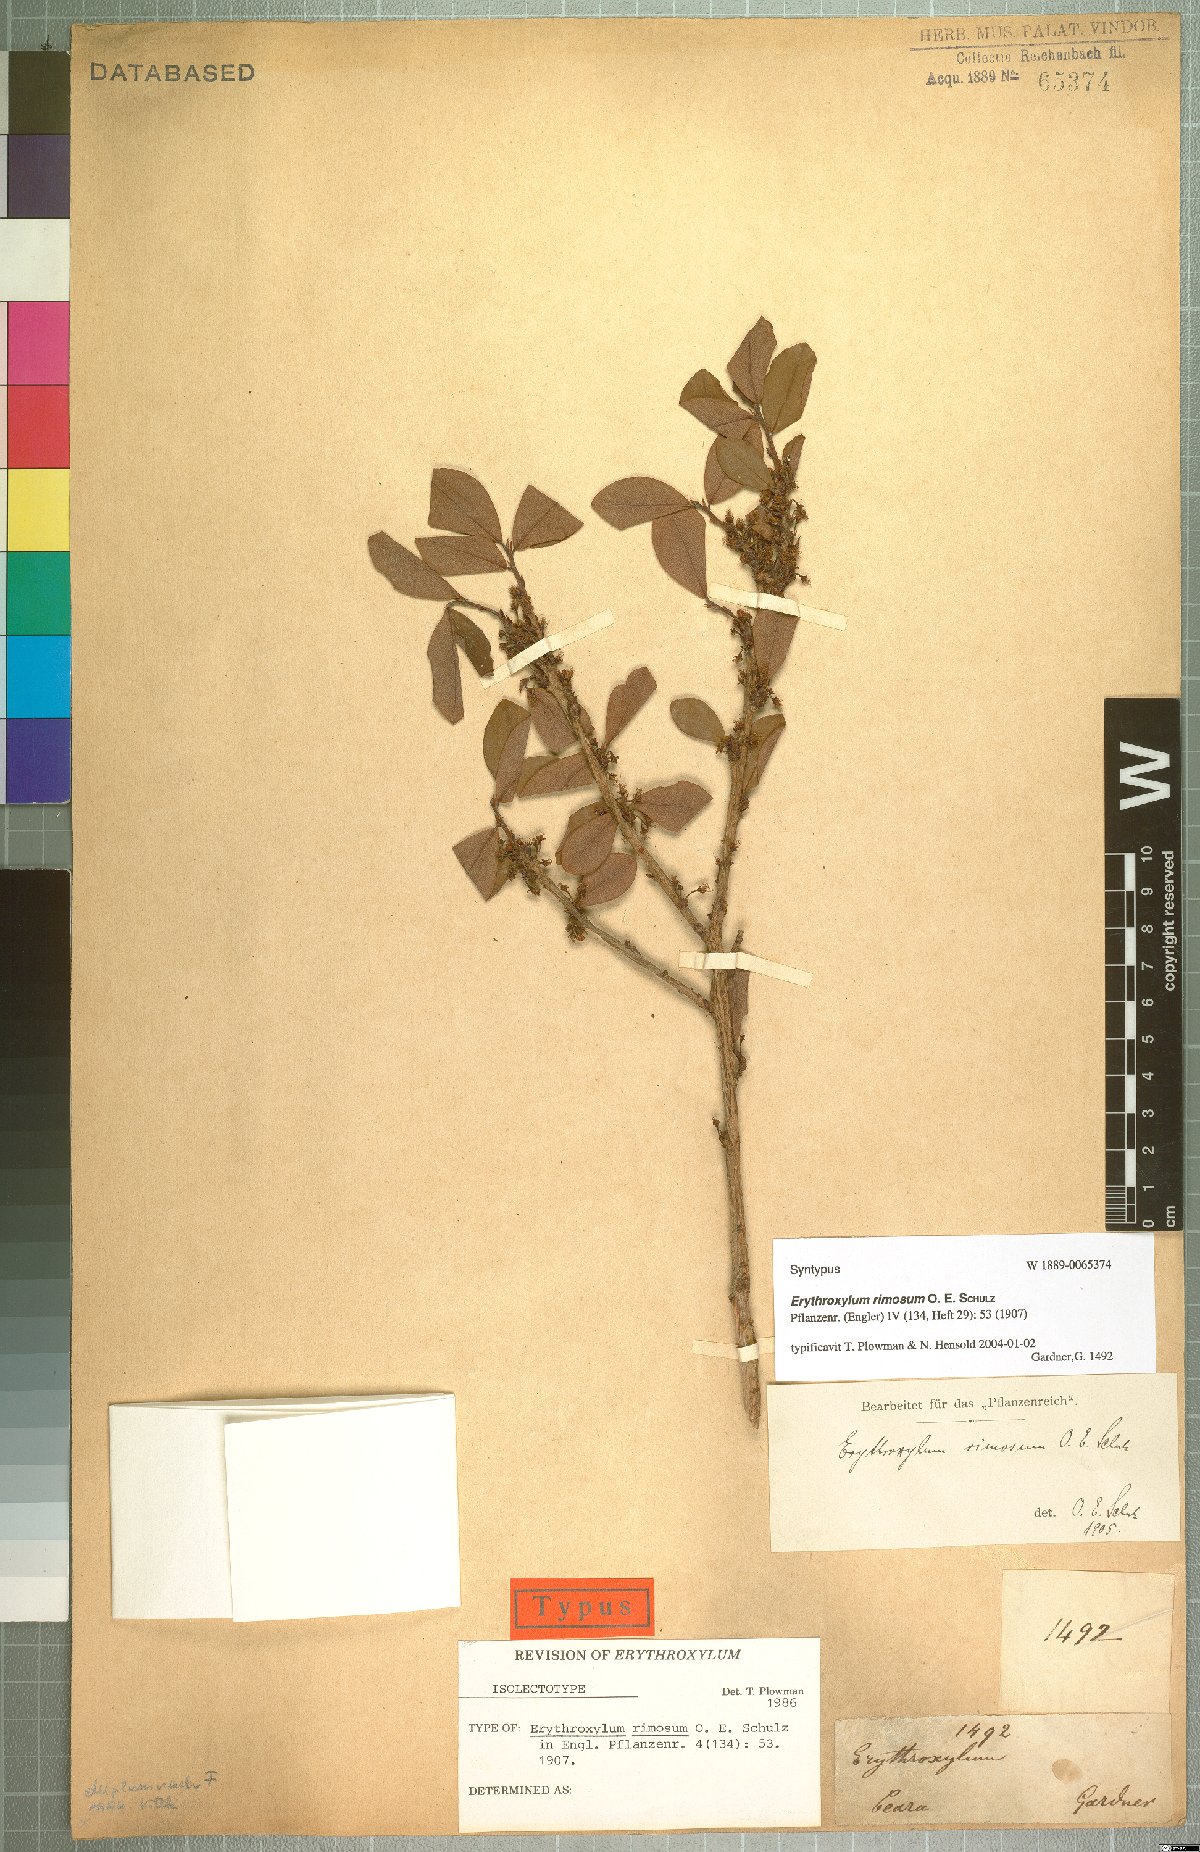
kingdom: Plantae
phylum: Tracheophyta
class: Magnoliopsida
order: Malpighiales
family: Erythroxylaceae
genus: Erythroxylum
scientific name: Erythroxylum rimosum
